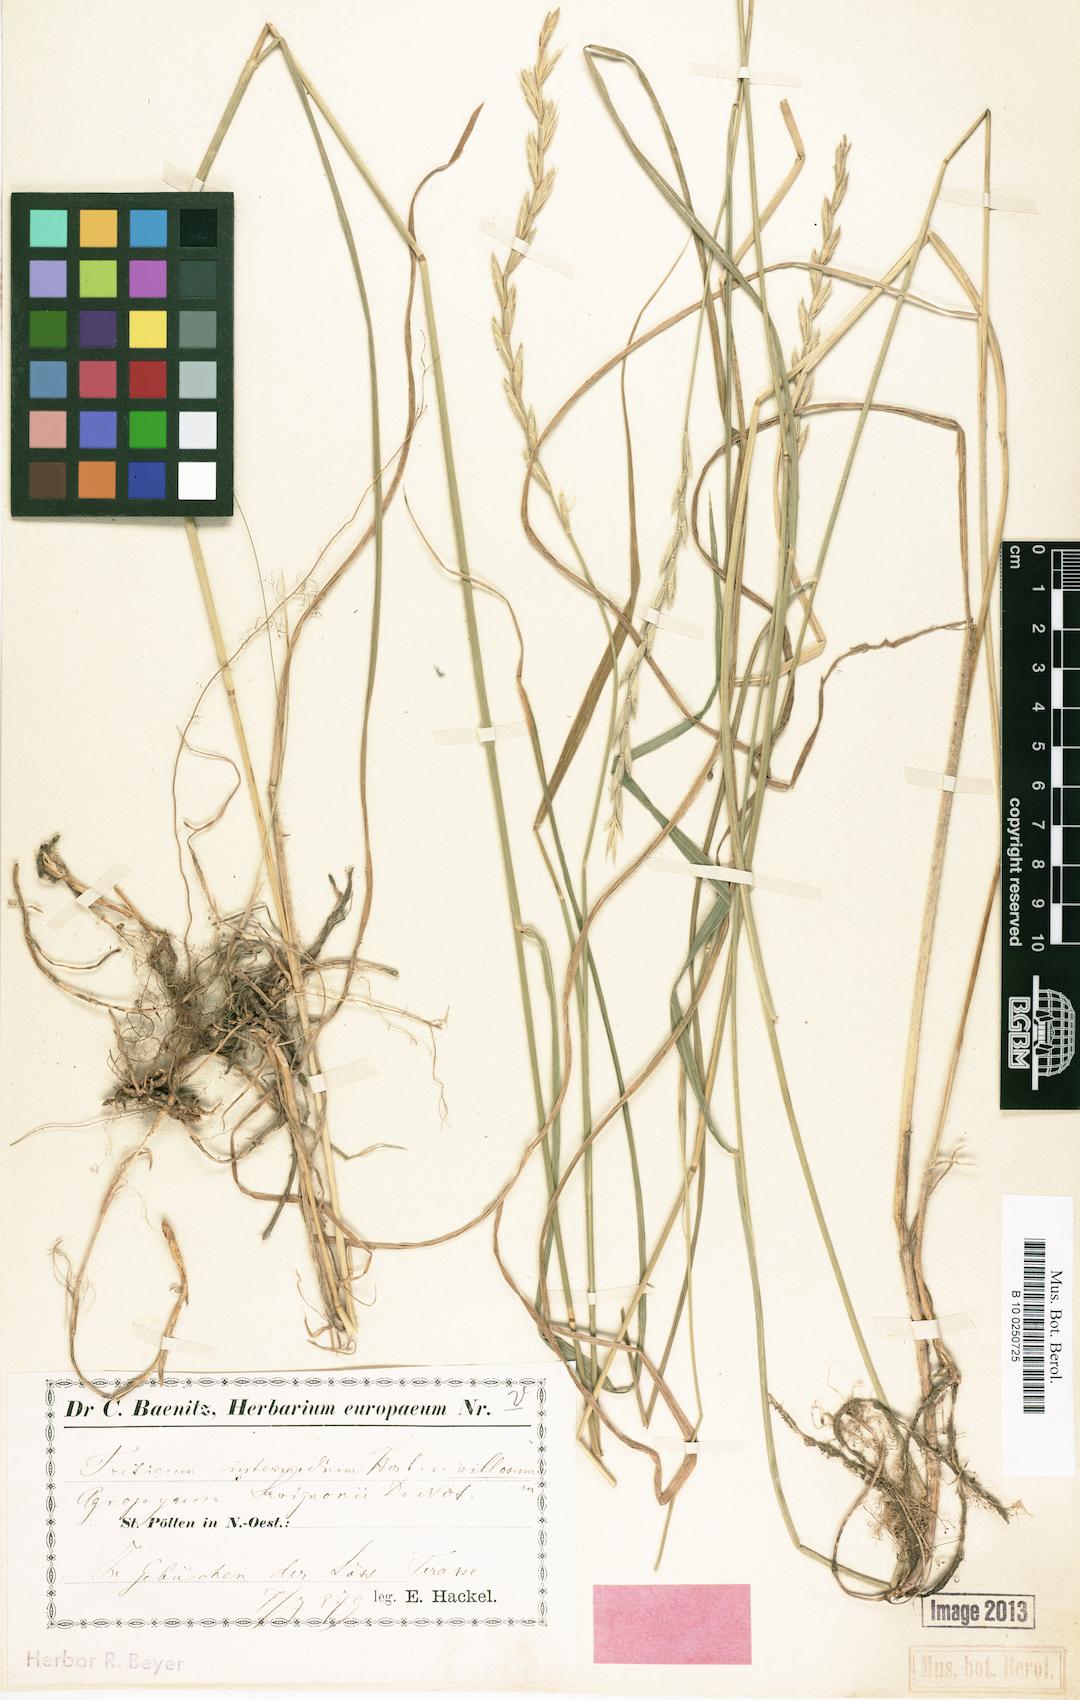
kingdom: Plantae
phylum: Tracheophyta
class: Liliopsida
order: Poales
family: Poaceae
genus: Thinopyrum
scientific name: Thinopyrum intermedium
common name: Intermediate wheatgrass
